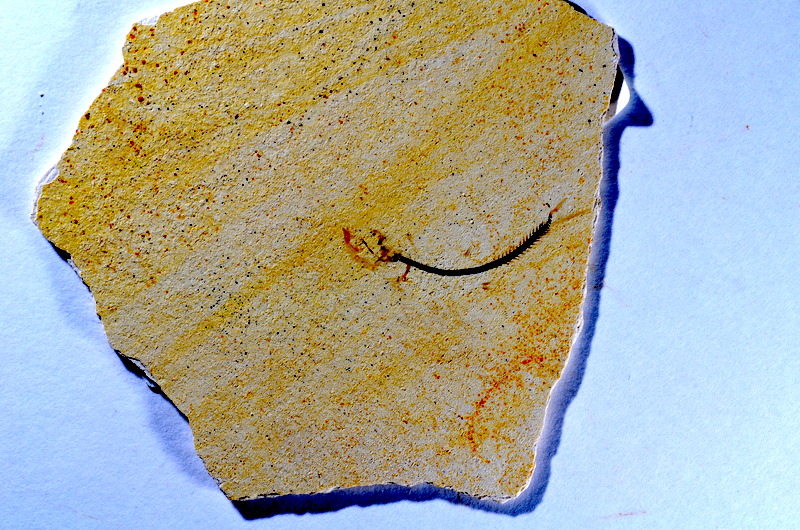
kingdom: Animalia
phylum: Chordata
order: Salmoniformes
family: Orthogonikleithridae
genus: Orthogonikleithrus
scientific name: Orthogonikleithrus hoelli
